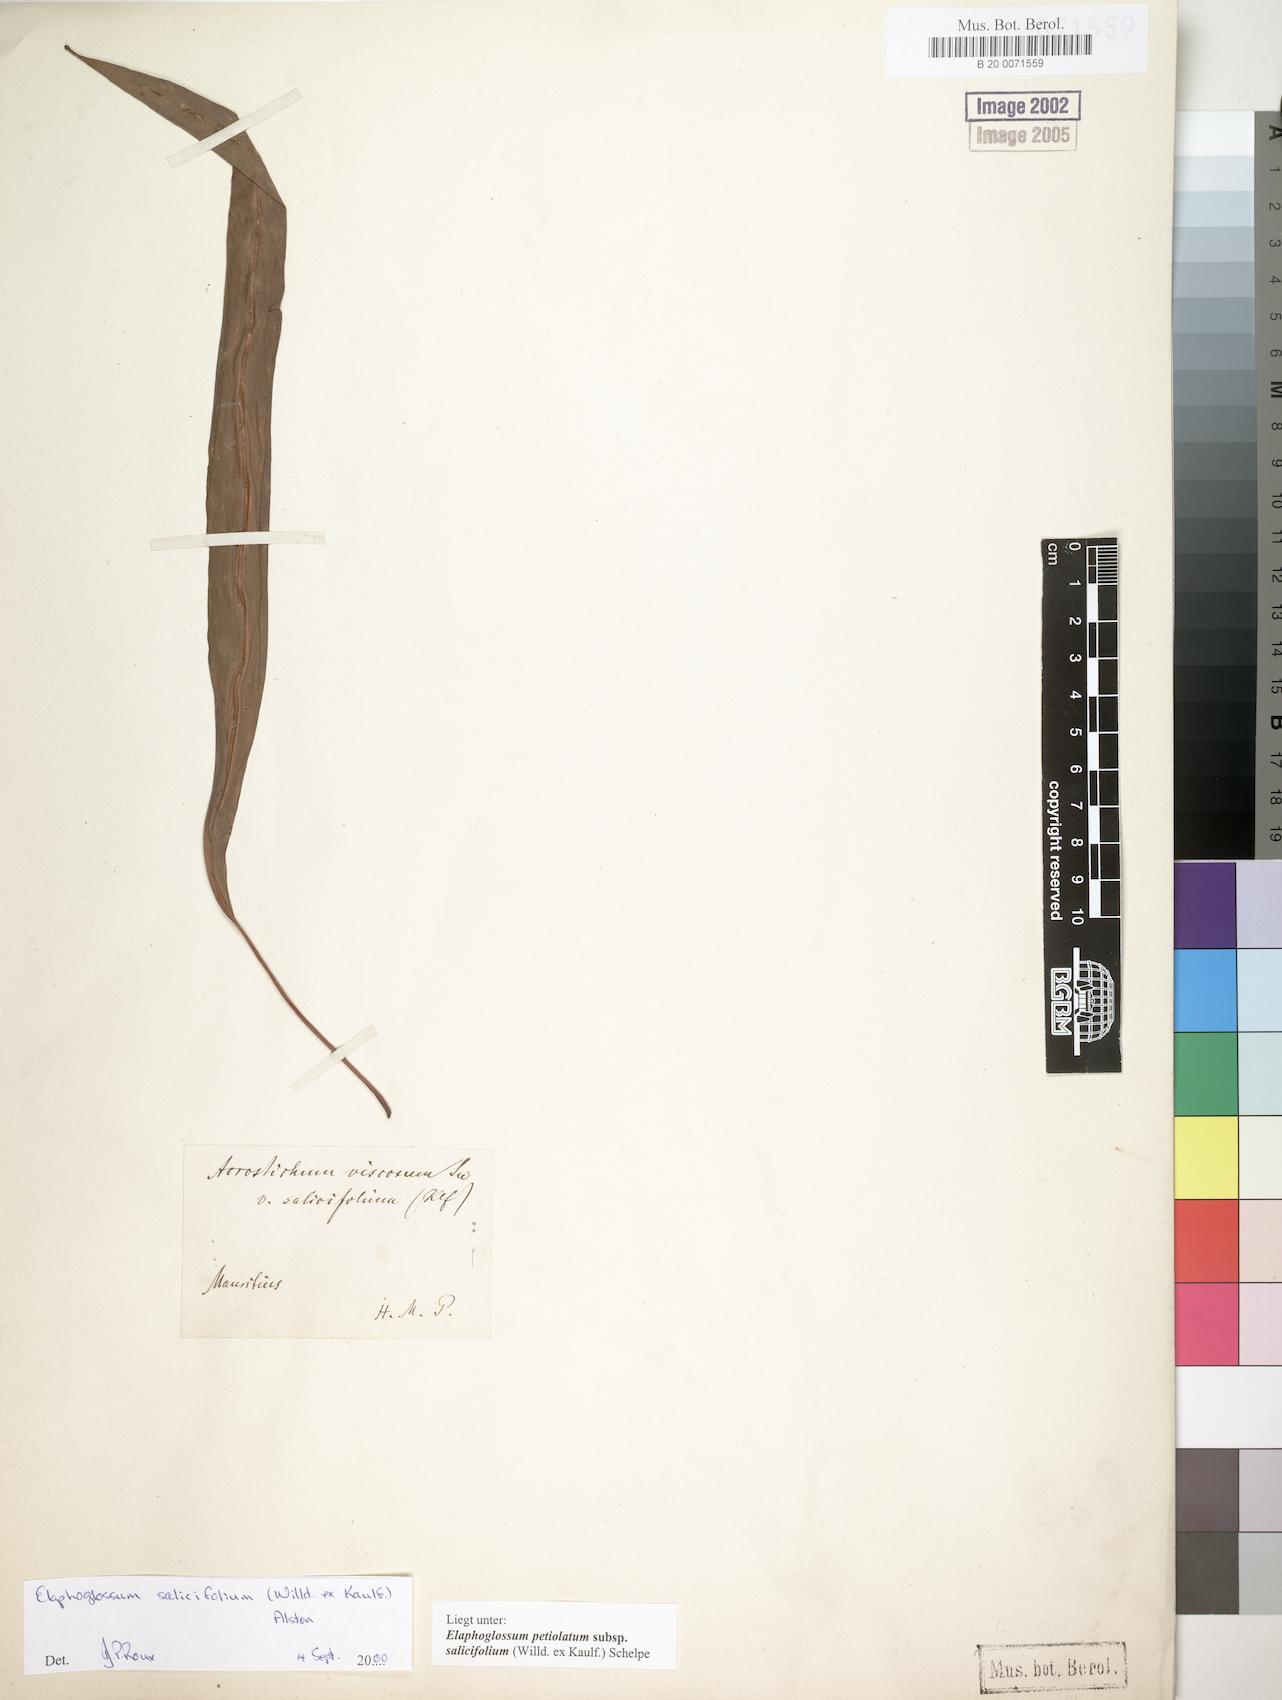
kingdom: Plantae
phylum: Tracheophyta
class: Polypodiopsida
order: Polypodiales
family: Dryopteridaceae
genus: Elaphoglossum
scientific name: Elaphoglossum lancifolium
